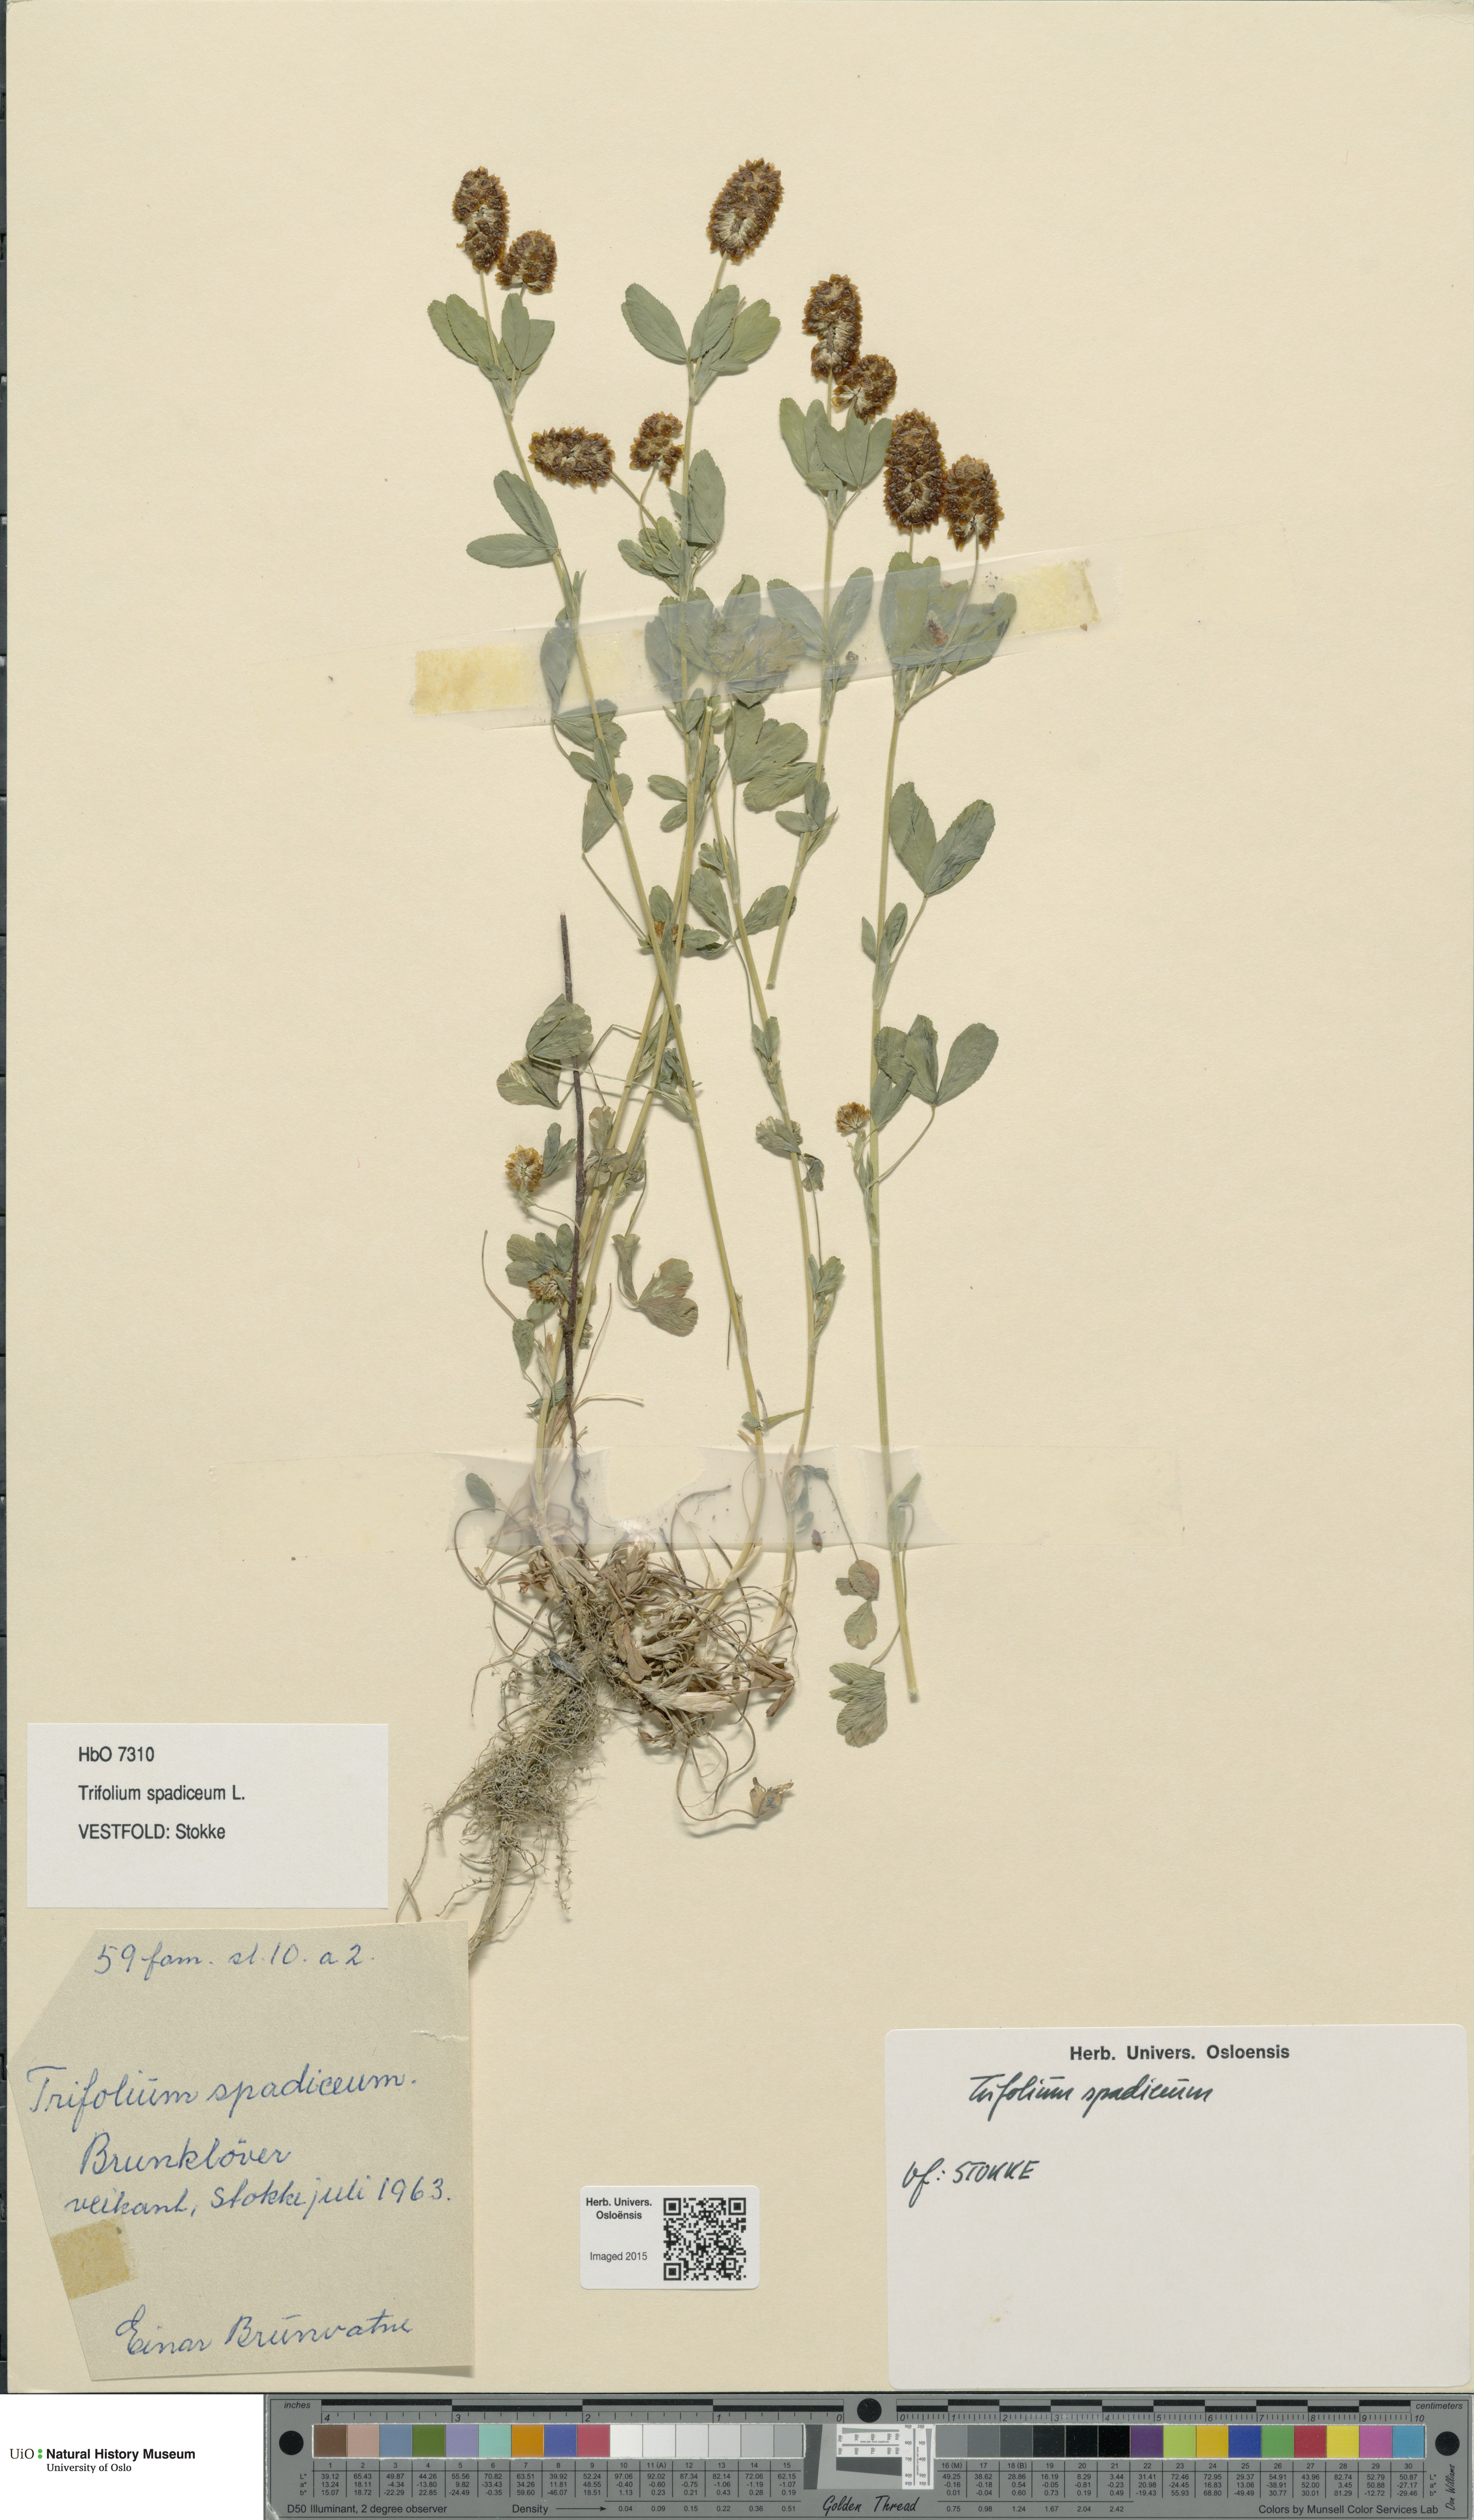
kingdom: Plantae
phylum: Tracheophyta
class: Magnoliopsida
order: Fabales
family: Fabaceae
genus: Trifolium
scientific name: Trifolium spadiceum
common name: Brown moor clover
